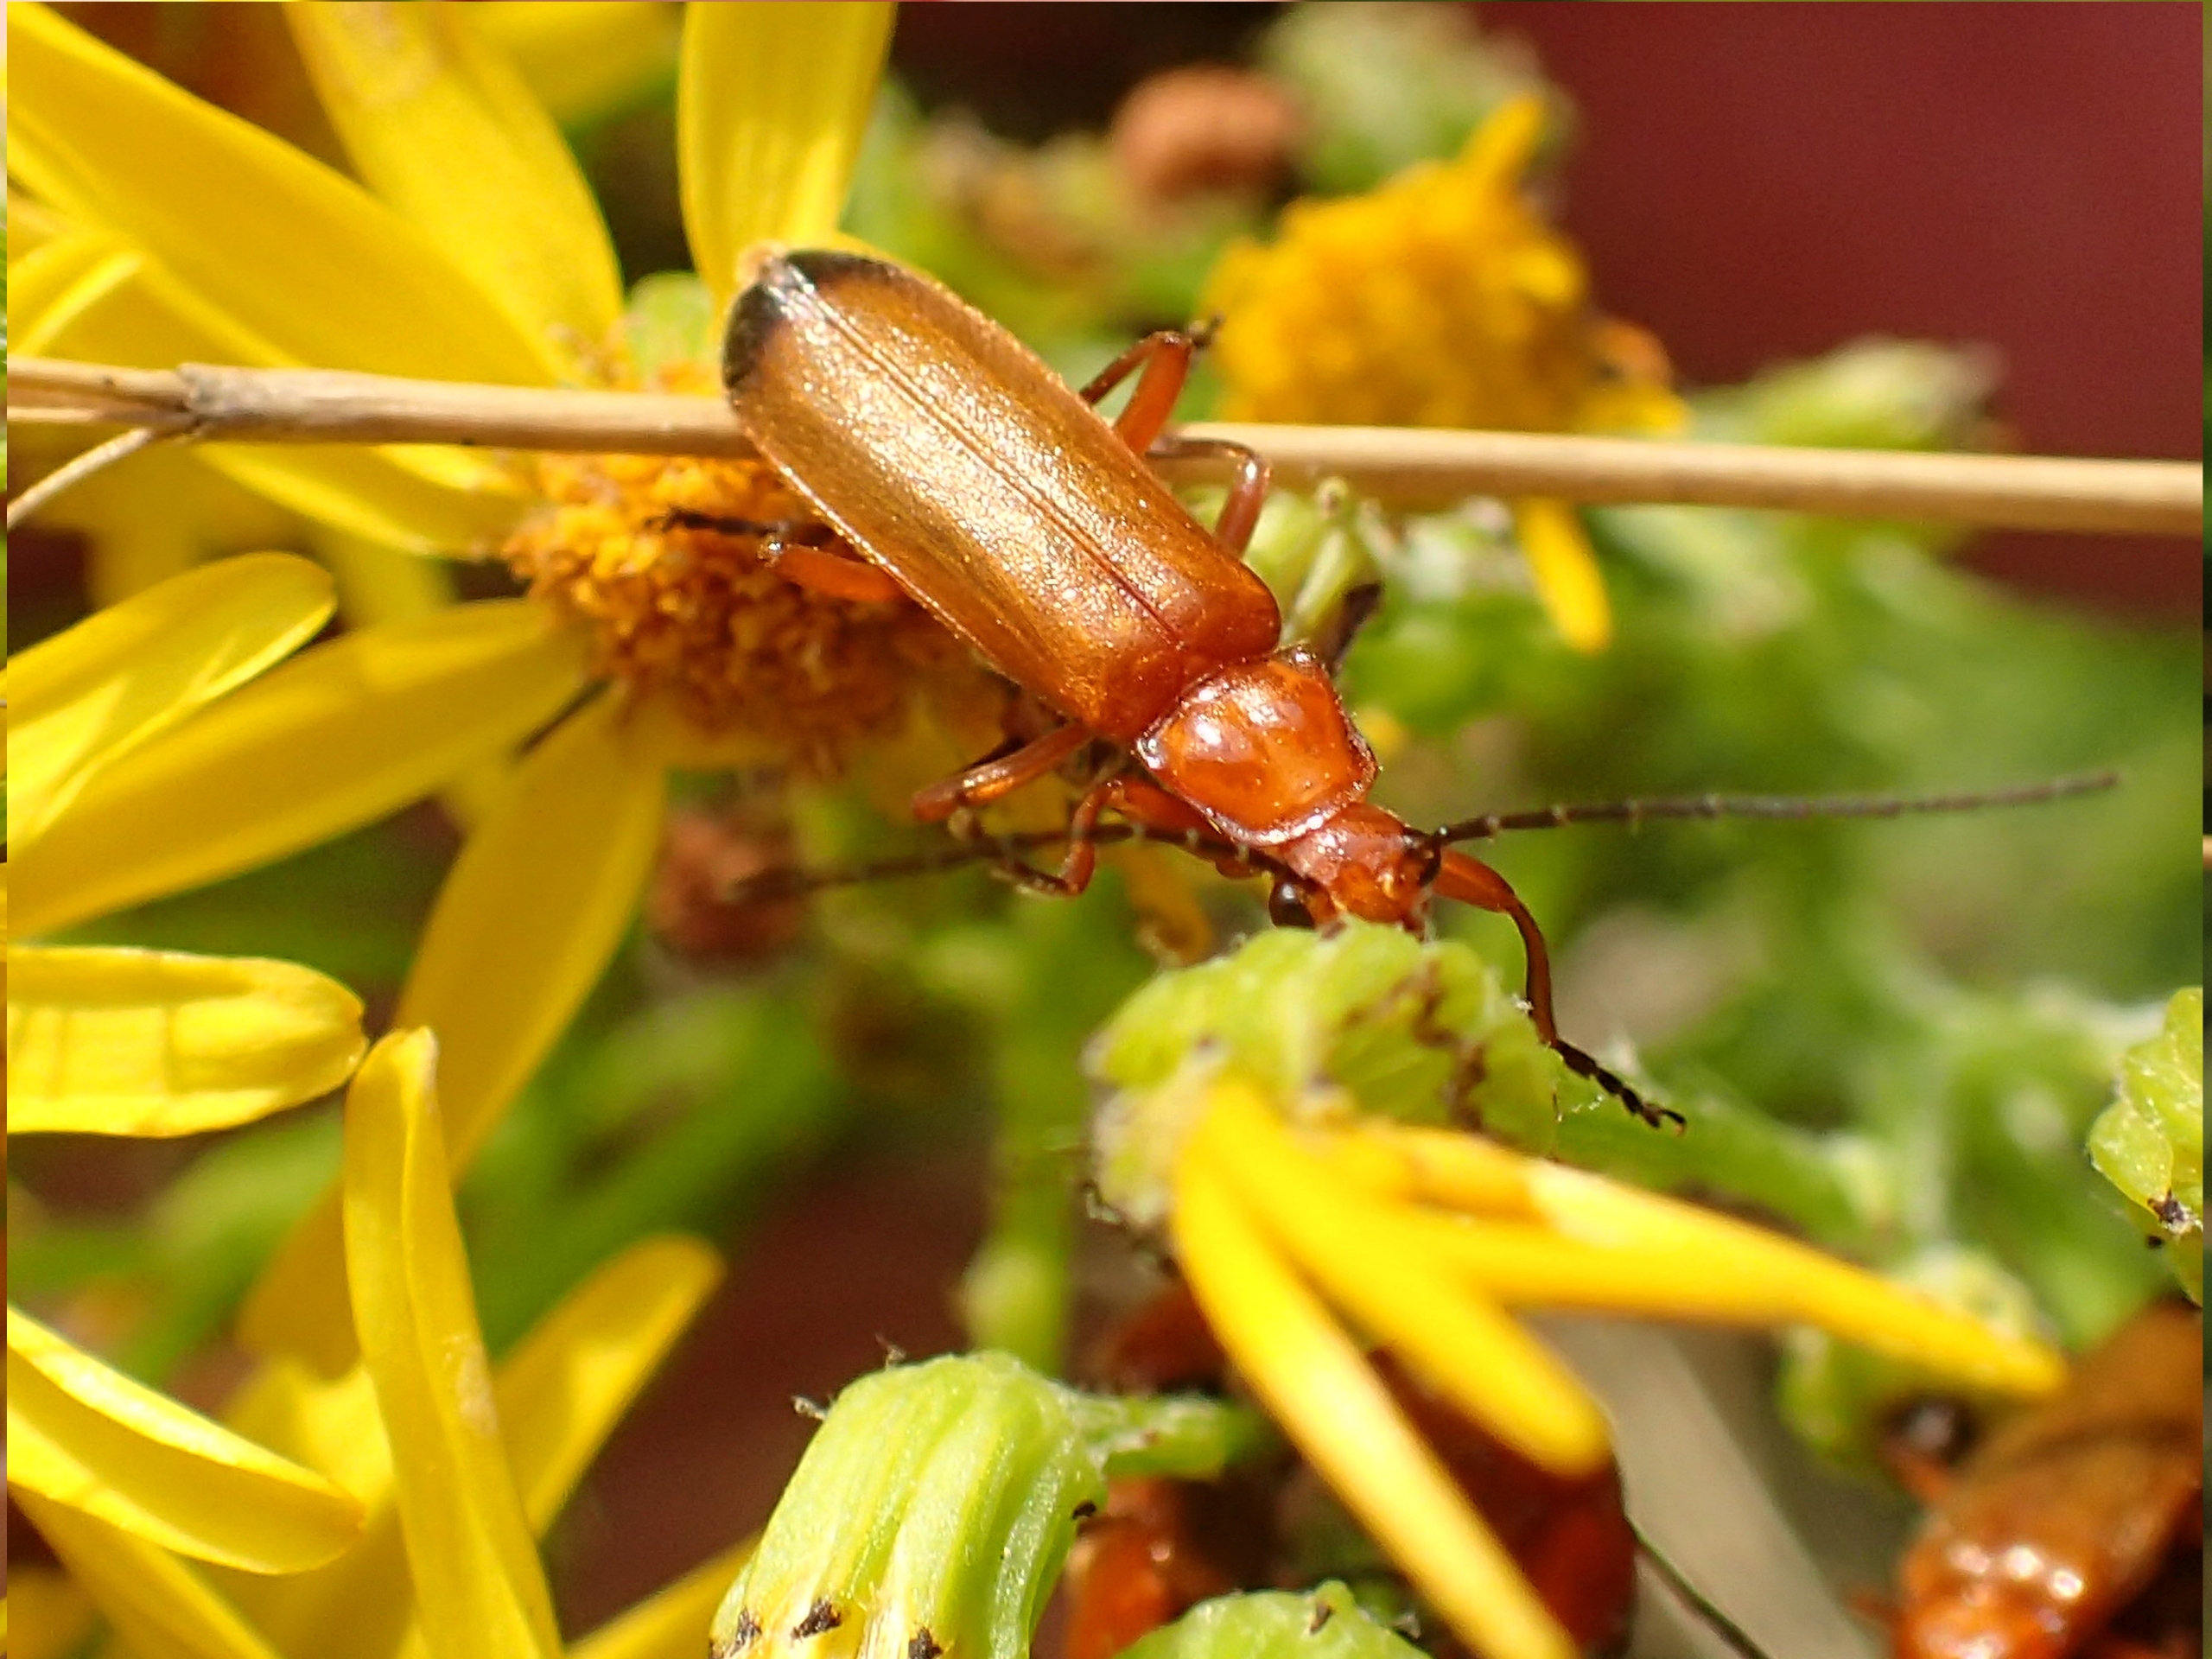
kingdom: Animalia
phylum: Arthropoda
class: Insecta
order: Coleoptera
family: Cantharidae
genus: Rhagonycha
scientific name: Rhagonycha fulva
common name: Præstebille
